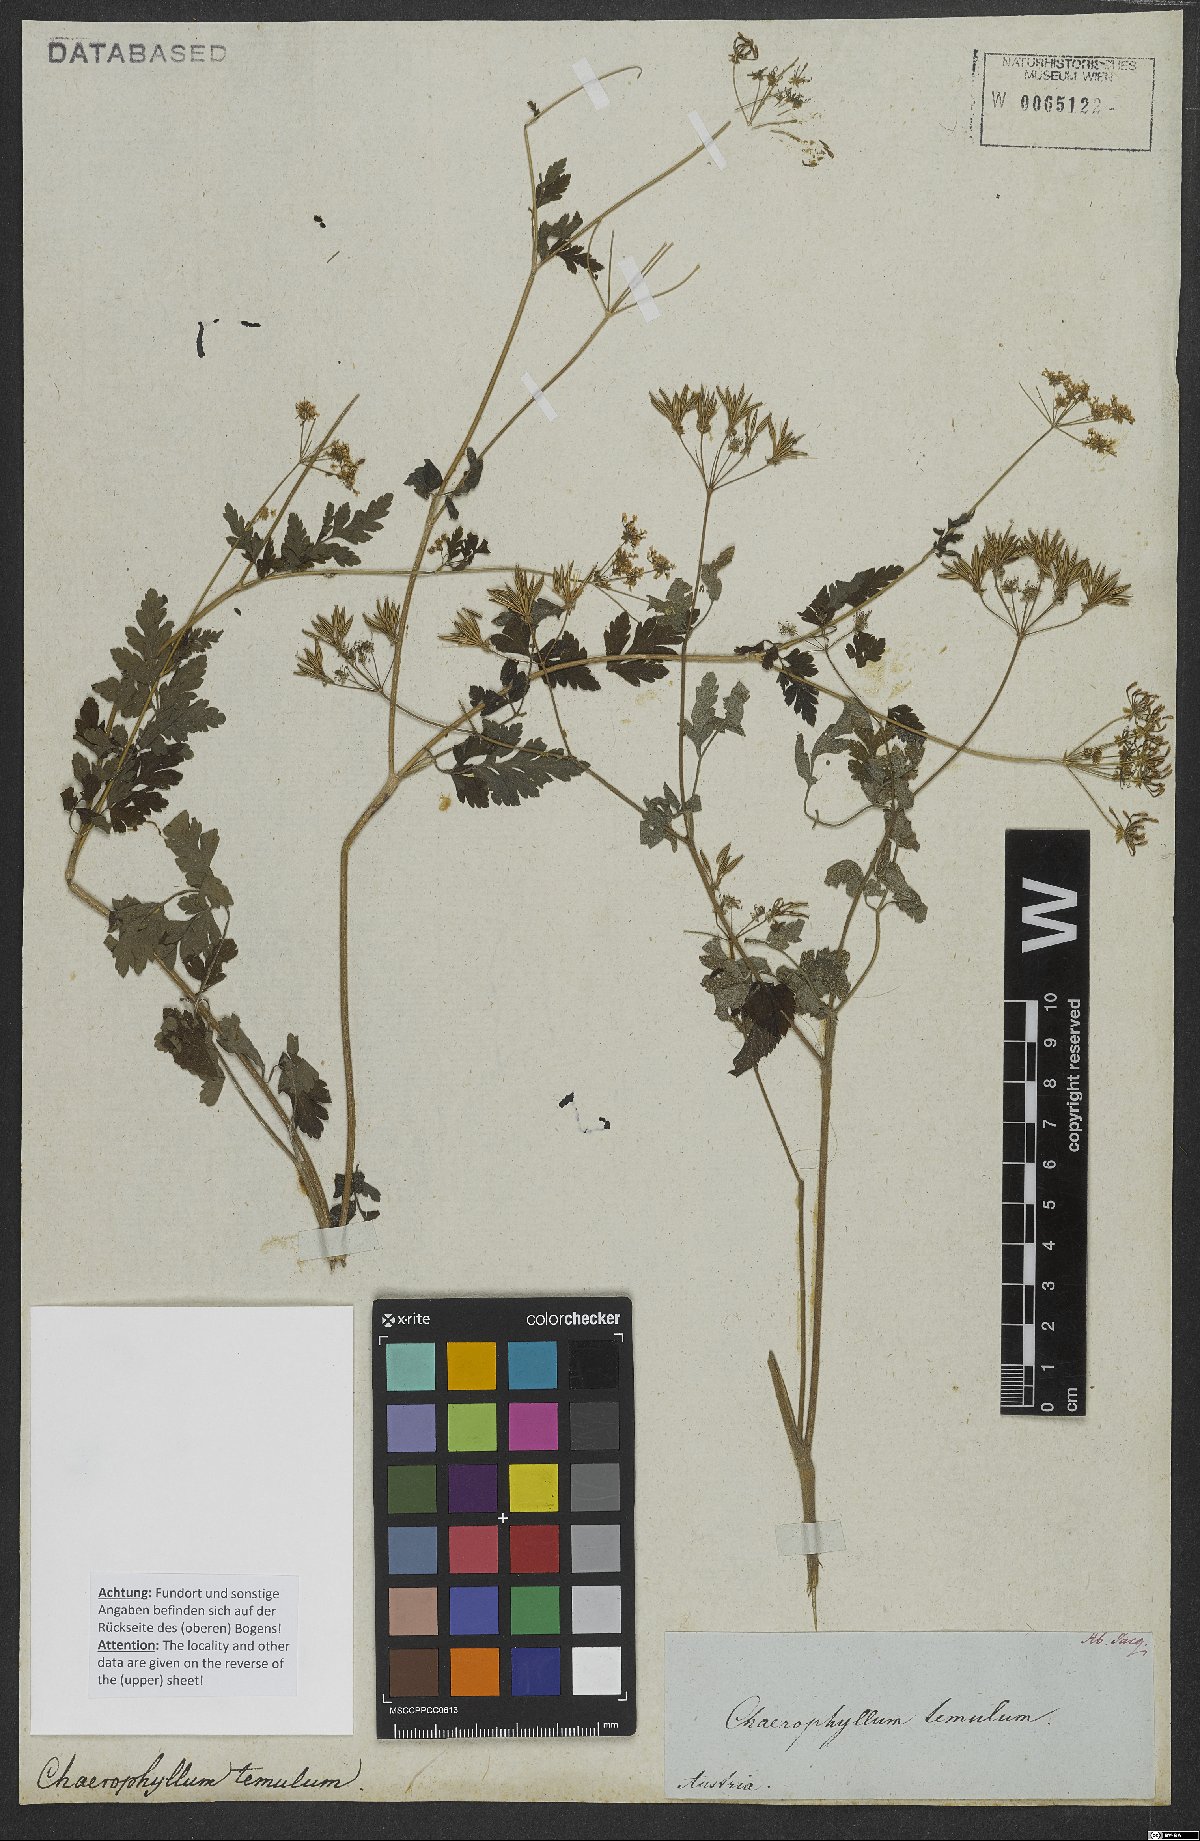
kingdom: Plantae
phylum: Tracheophyta
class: Magnoliopsida
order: Apiales
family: Apiaceae
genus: Chaerophyllum
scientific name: Chaerophyllum temulum
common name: Rough chervil
